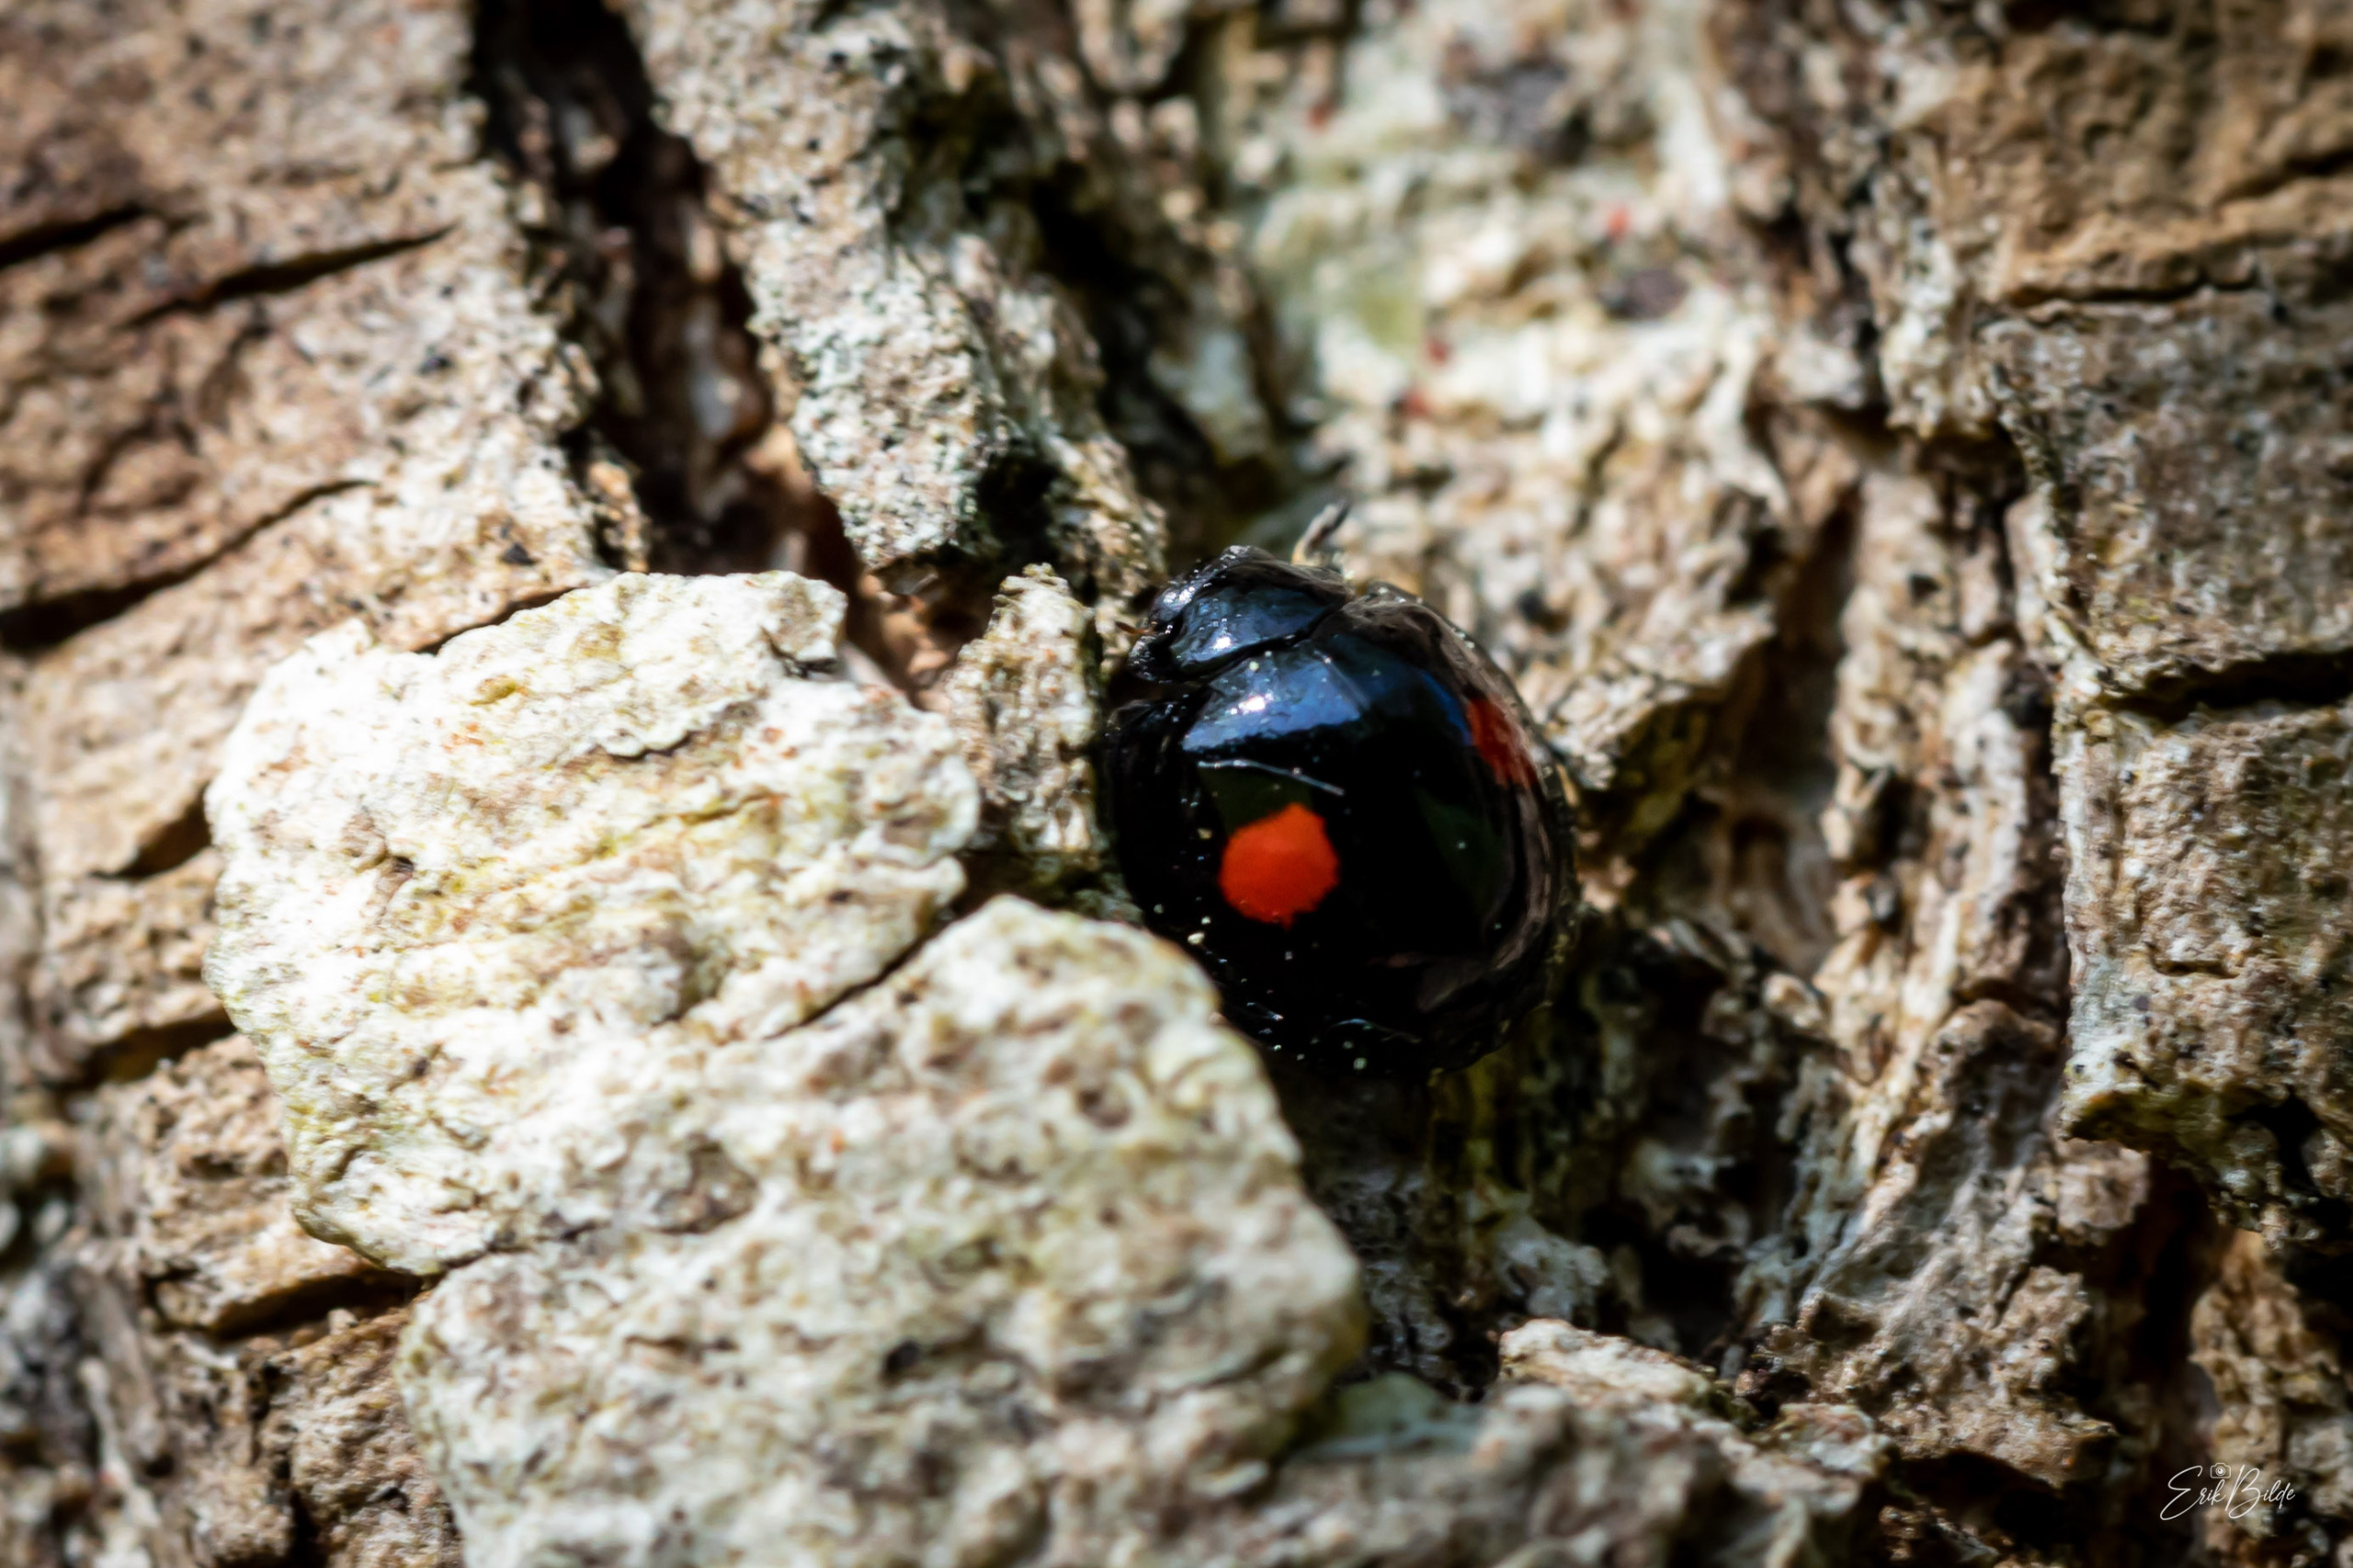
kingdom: Animalia
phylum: Arthropoda
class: Insecta
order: Coleoptera
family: Coccinellidae
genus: Chilocorus
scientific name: Chilocorus renipustulatus
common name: Askemariehøne
